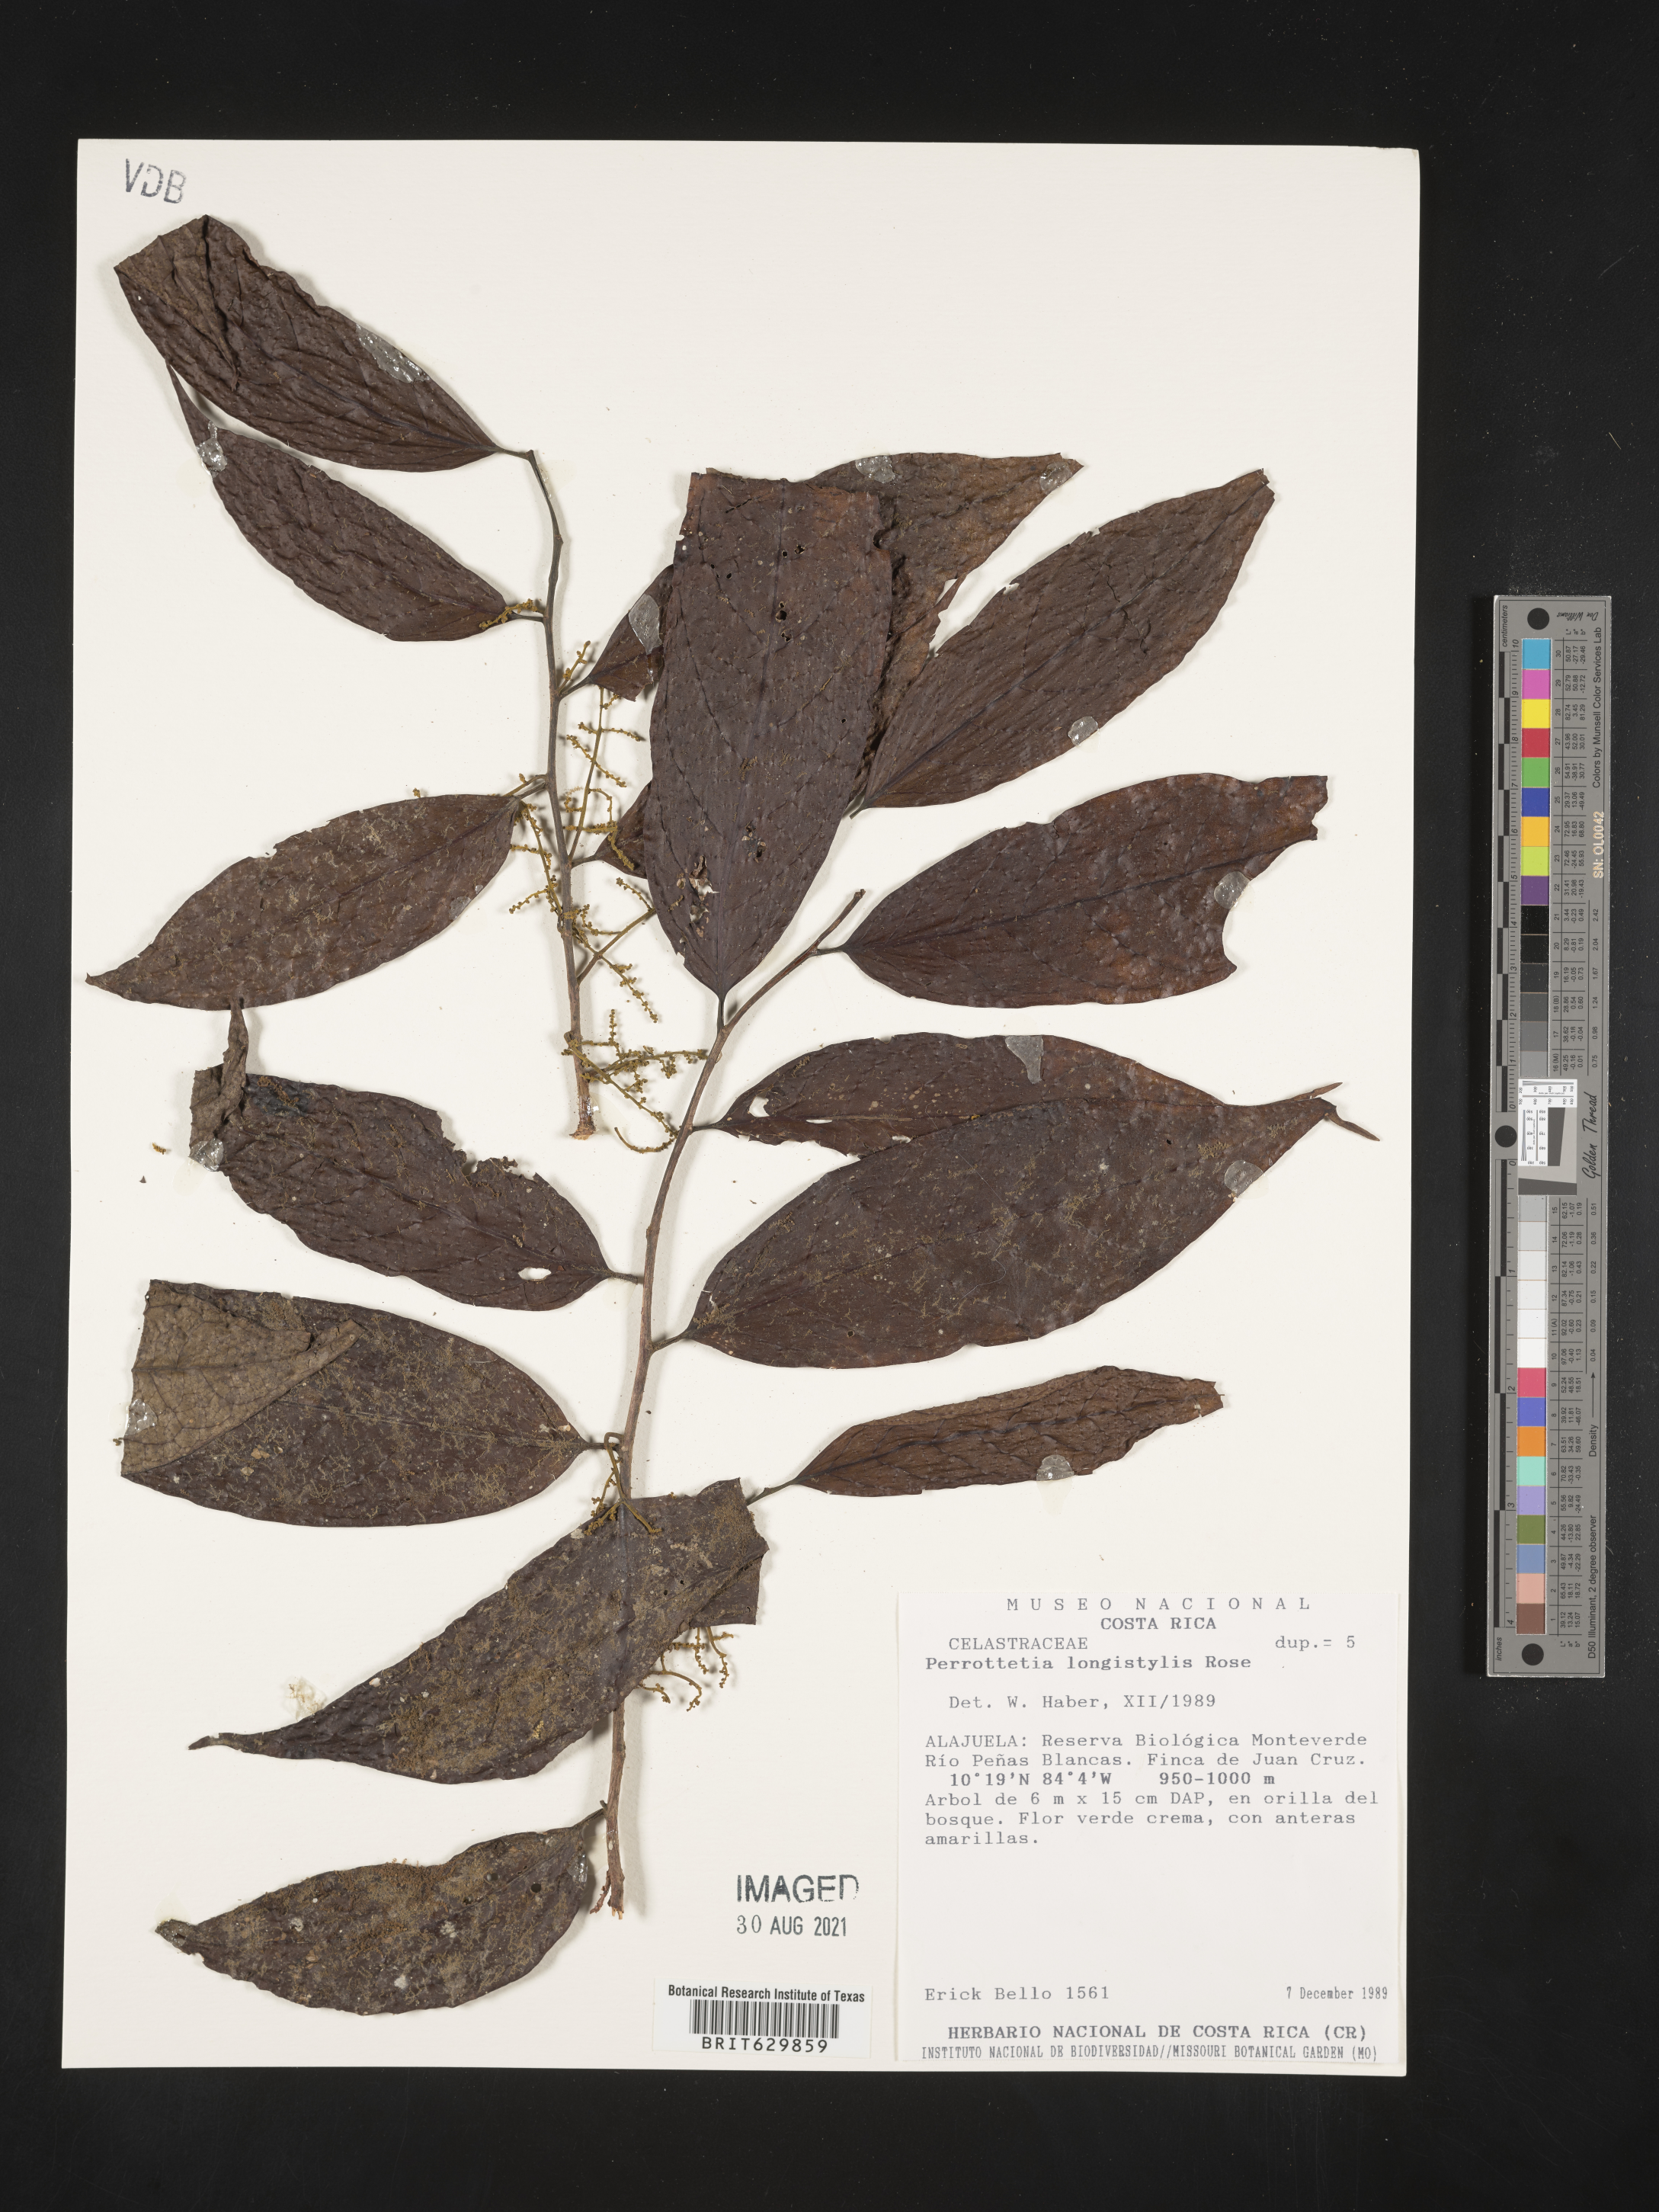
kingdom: Plantae
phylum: Tracheophyta
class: Magnoliopsida
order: Huerteales
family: Dipentodontaceae
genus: Perrottetia
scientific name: Perrottetia
